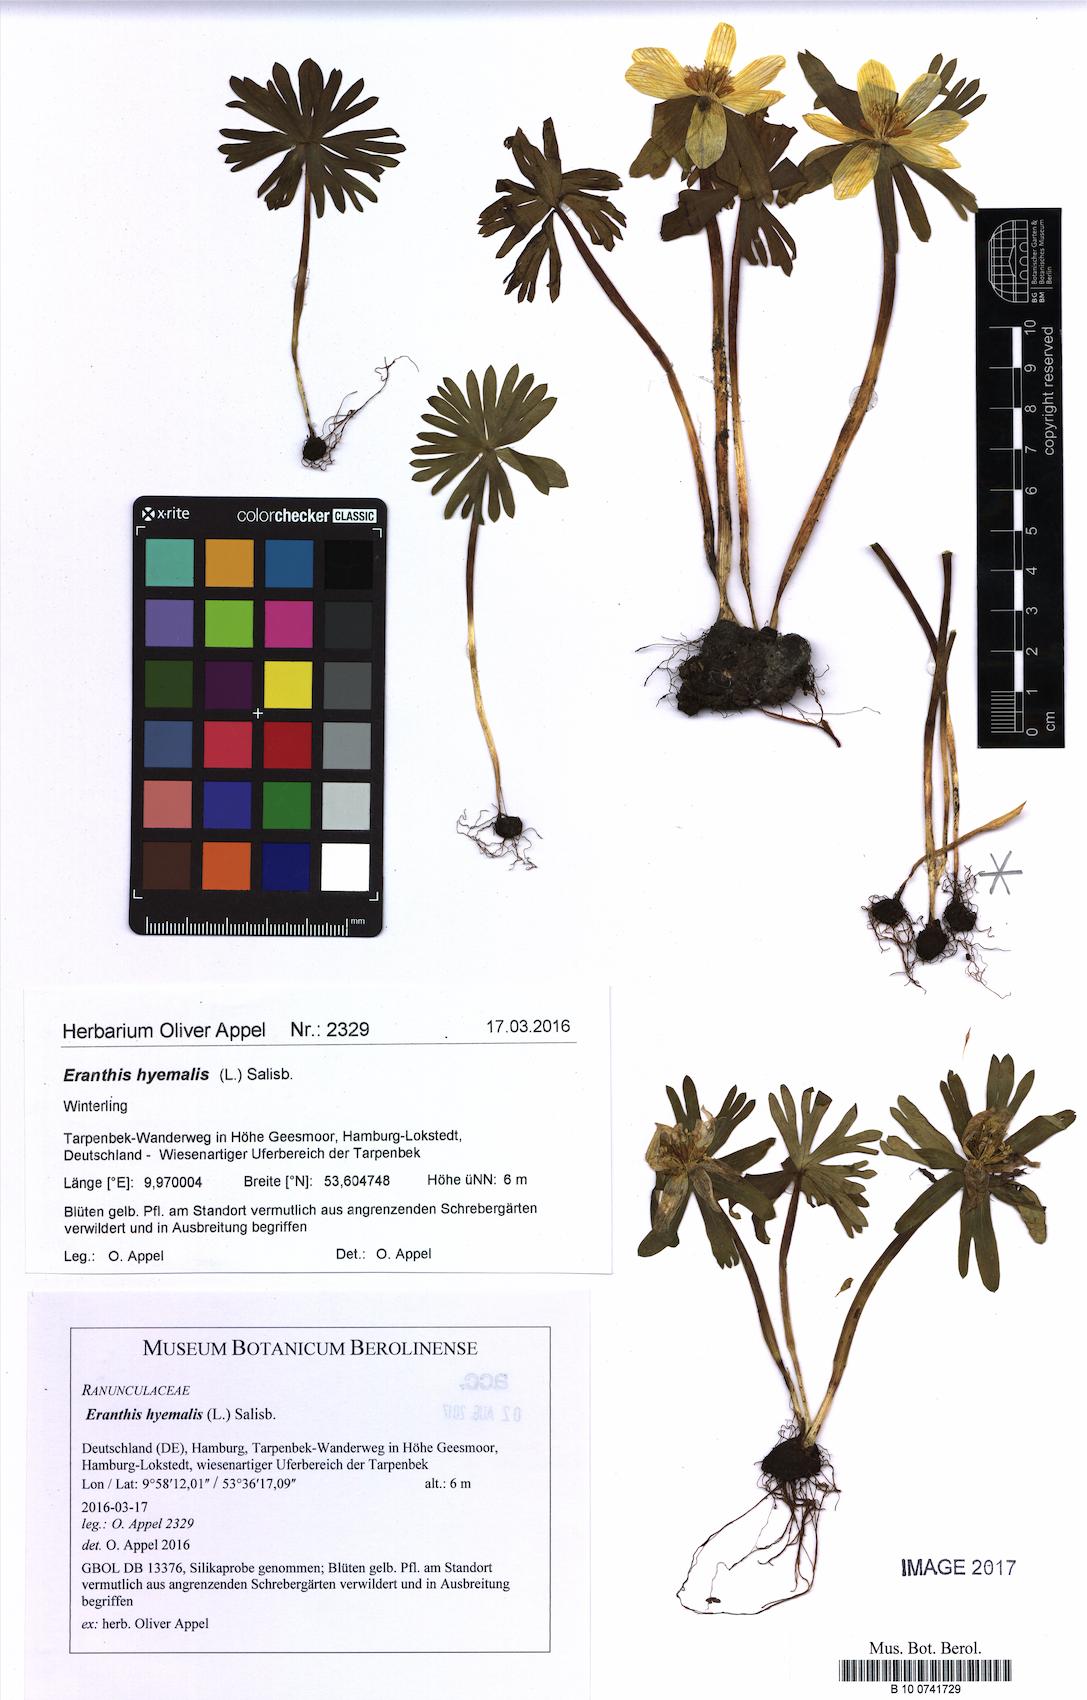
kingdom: Plantae
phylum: Tracheophyta
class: Magnoliopsida
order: Ranunculales
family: Ranunculaceae
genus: Eranthis
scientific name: Eranthis hyemalis
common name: Winter aconite
